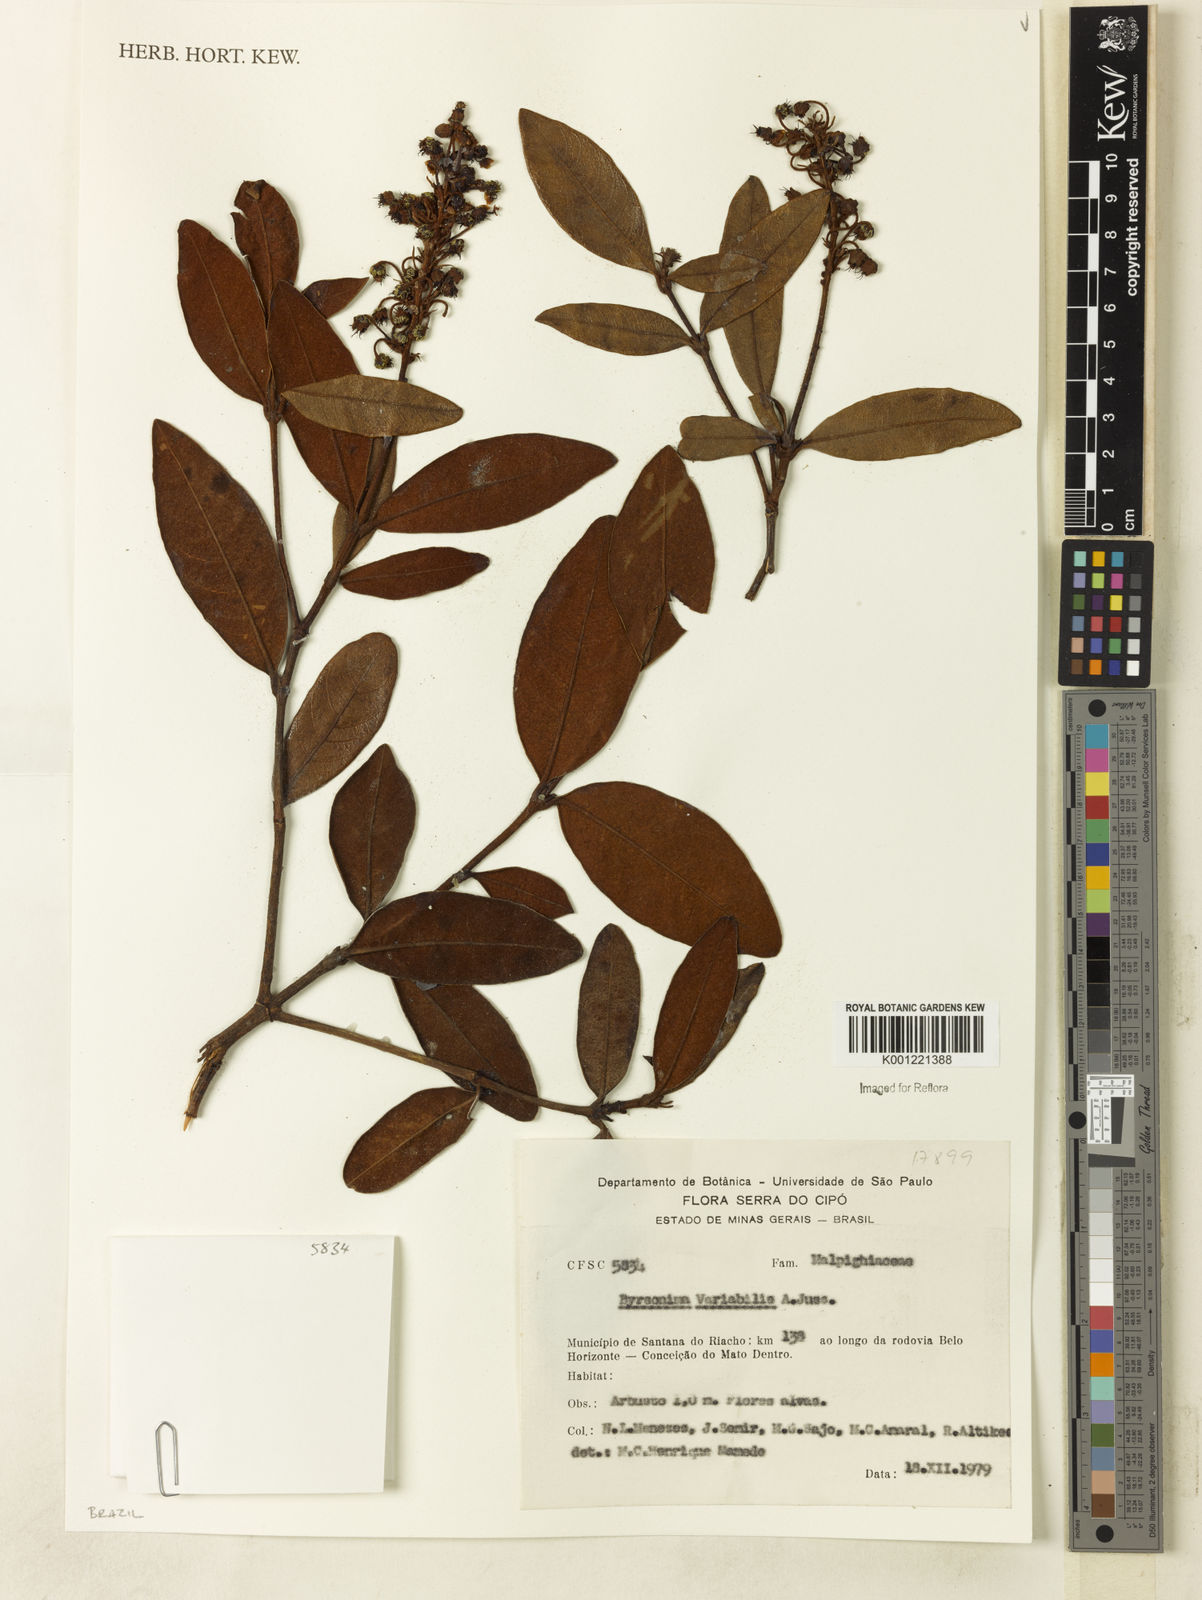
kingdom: Plantae
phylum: Tracheophyta
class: Magnoliopsida
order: Malpighiales
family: Malpighiaceae
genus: Byrsonima
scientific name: Byrsonima variabilis
